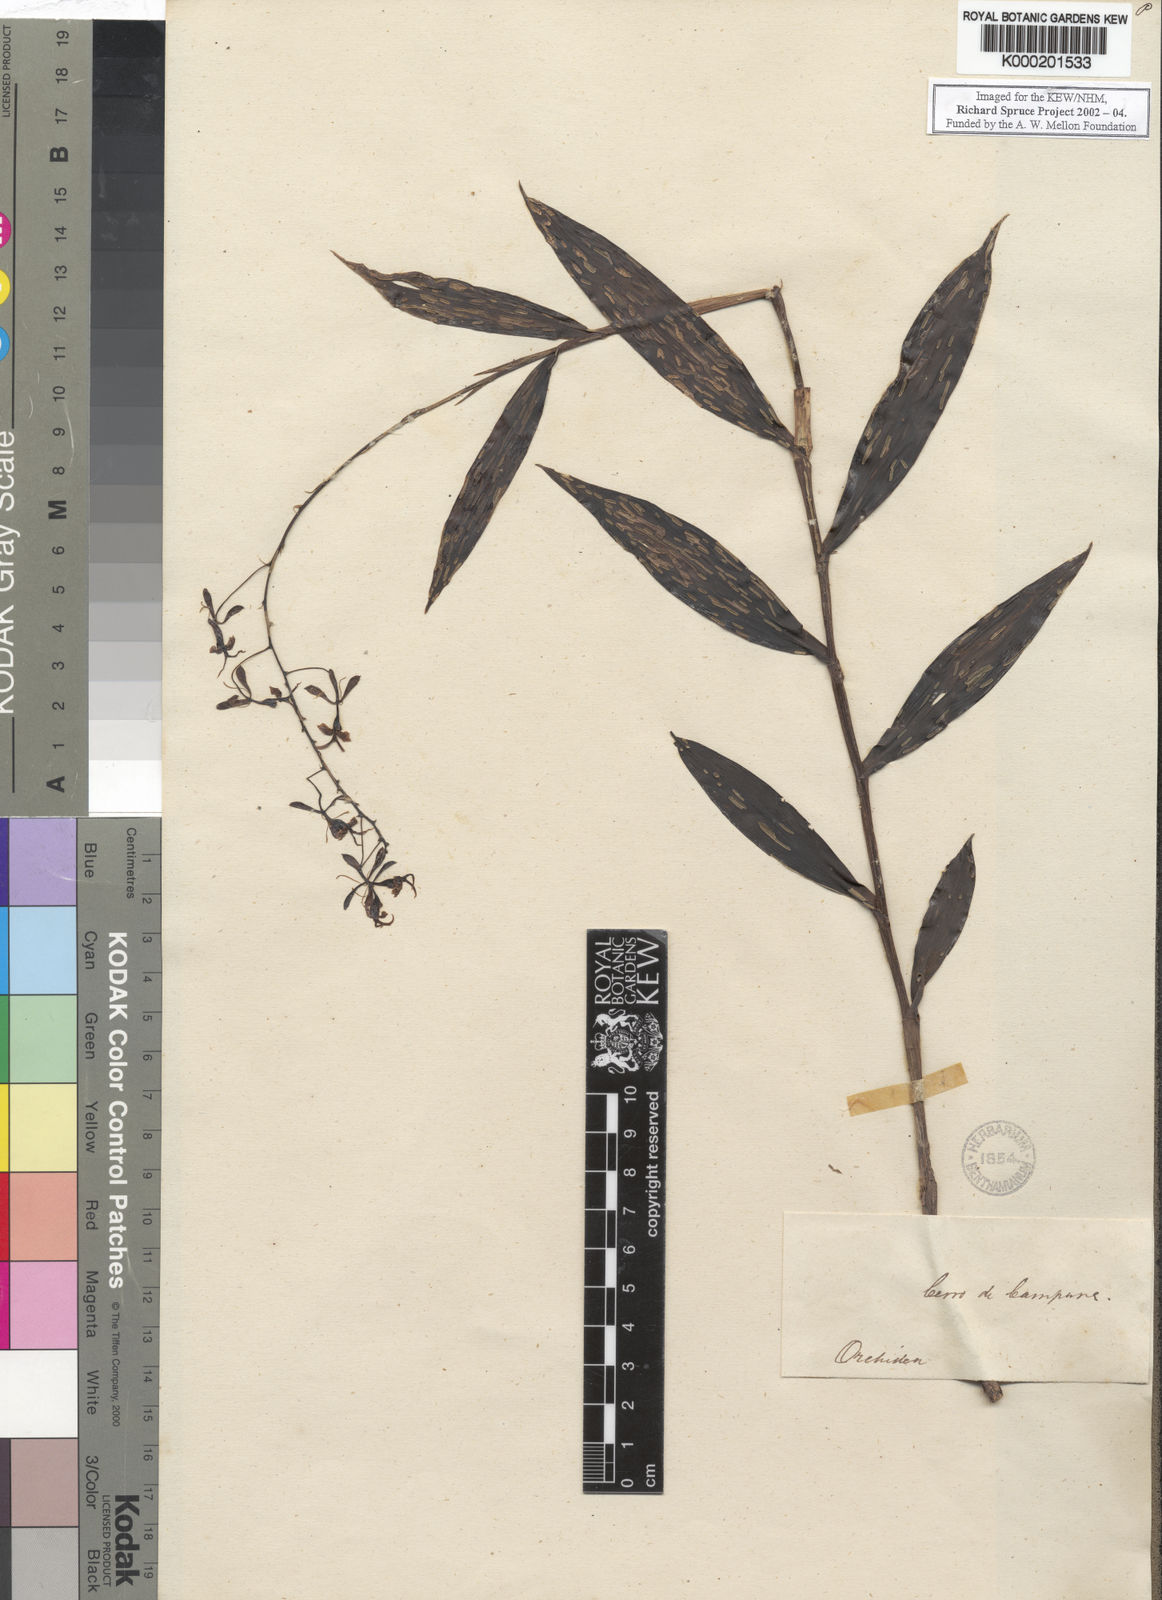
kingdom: Plantae
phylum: Tracheophyta
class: Liliopsida
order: Asparagales
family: Orchidaceae
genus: Epidendrum
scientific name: Epidendrum
